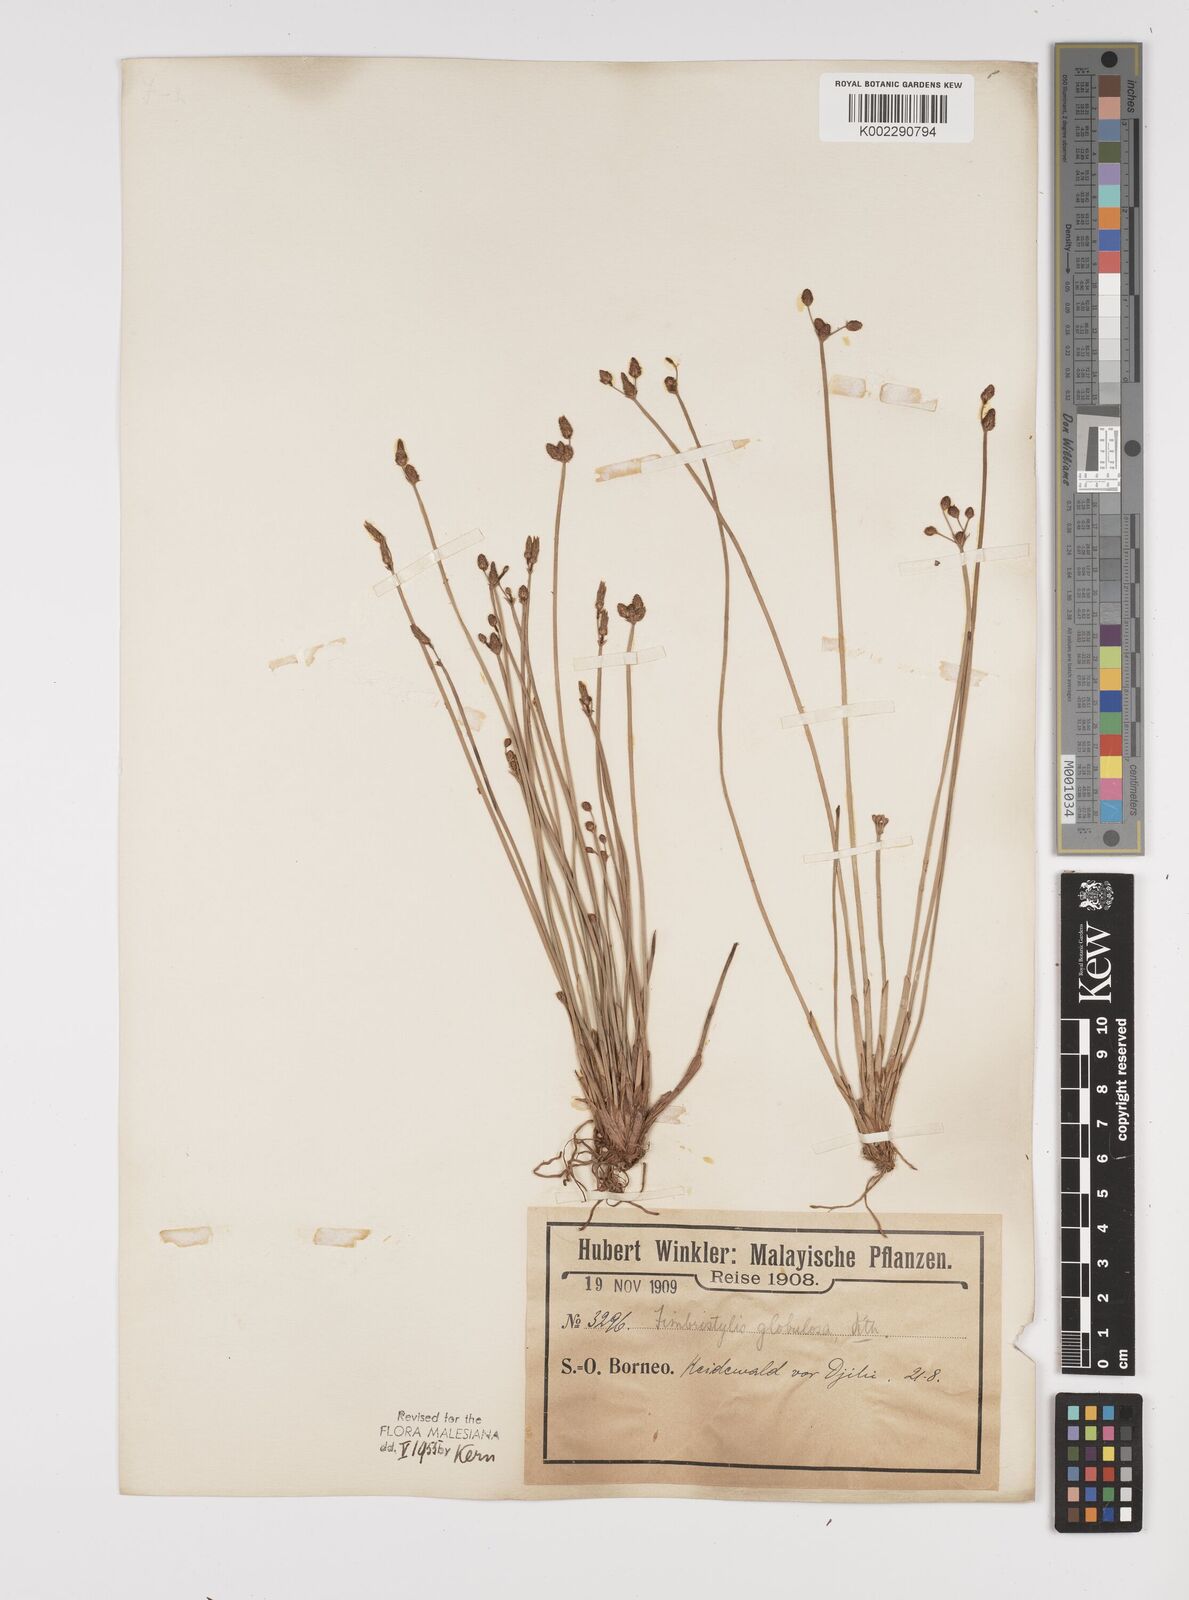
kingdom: Plantae
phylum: Tracheophyta
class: Liliopsida
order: Poales
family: Cyperaceae
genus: Fimbristylis
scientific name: Fimbristylis umbellaris
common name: Globular fimbristylis
